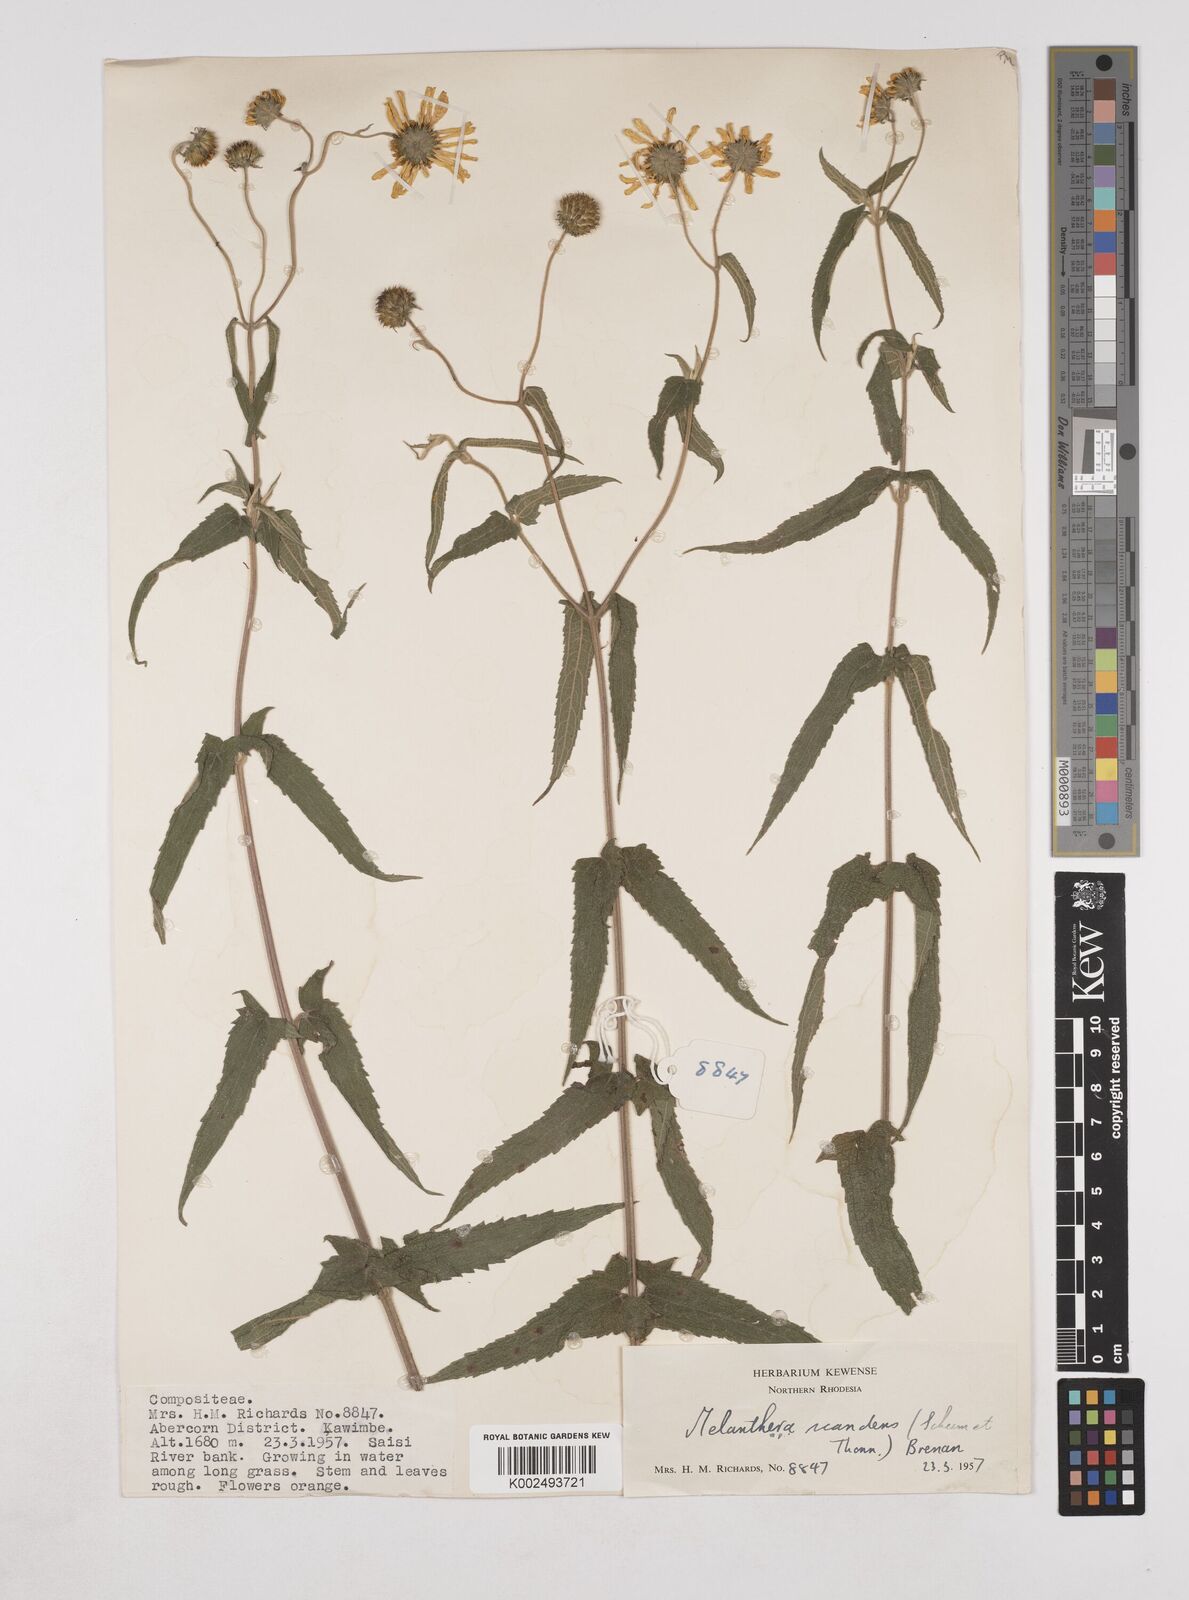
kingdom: Plantae
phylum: Tracheophyta
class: Magnoliopsida
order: Asterales
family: Asteraceae
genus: Lipotriche
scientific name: Lipotriche scandens
